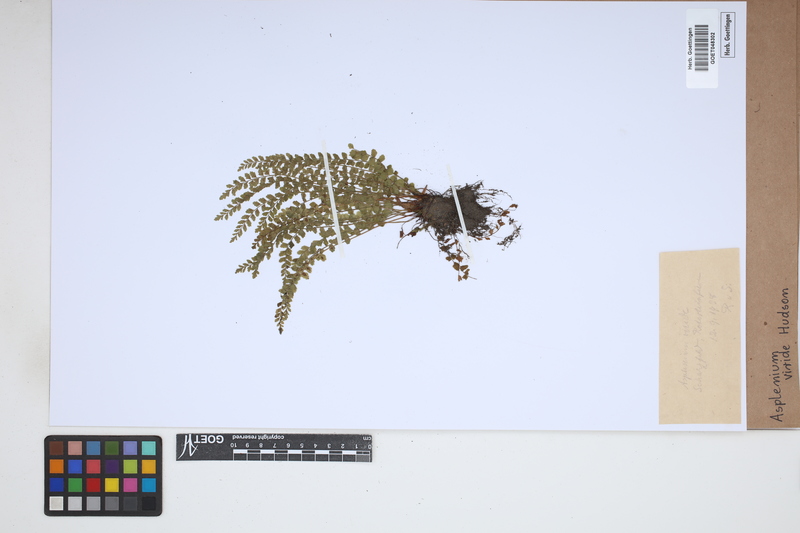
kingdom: Plantae
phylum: Tracheophyta
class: Polypodiopsida
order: Polypodiales
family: Aspleniaceae
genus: Asplenium
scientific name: Asplenium viride
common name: Green spleenwort
